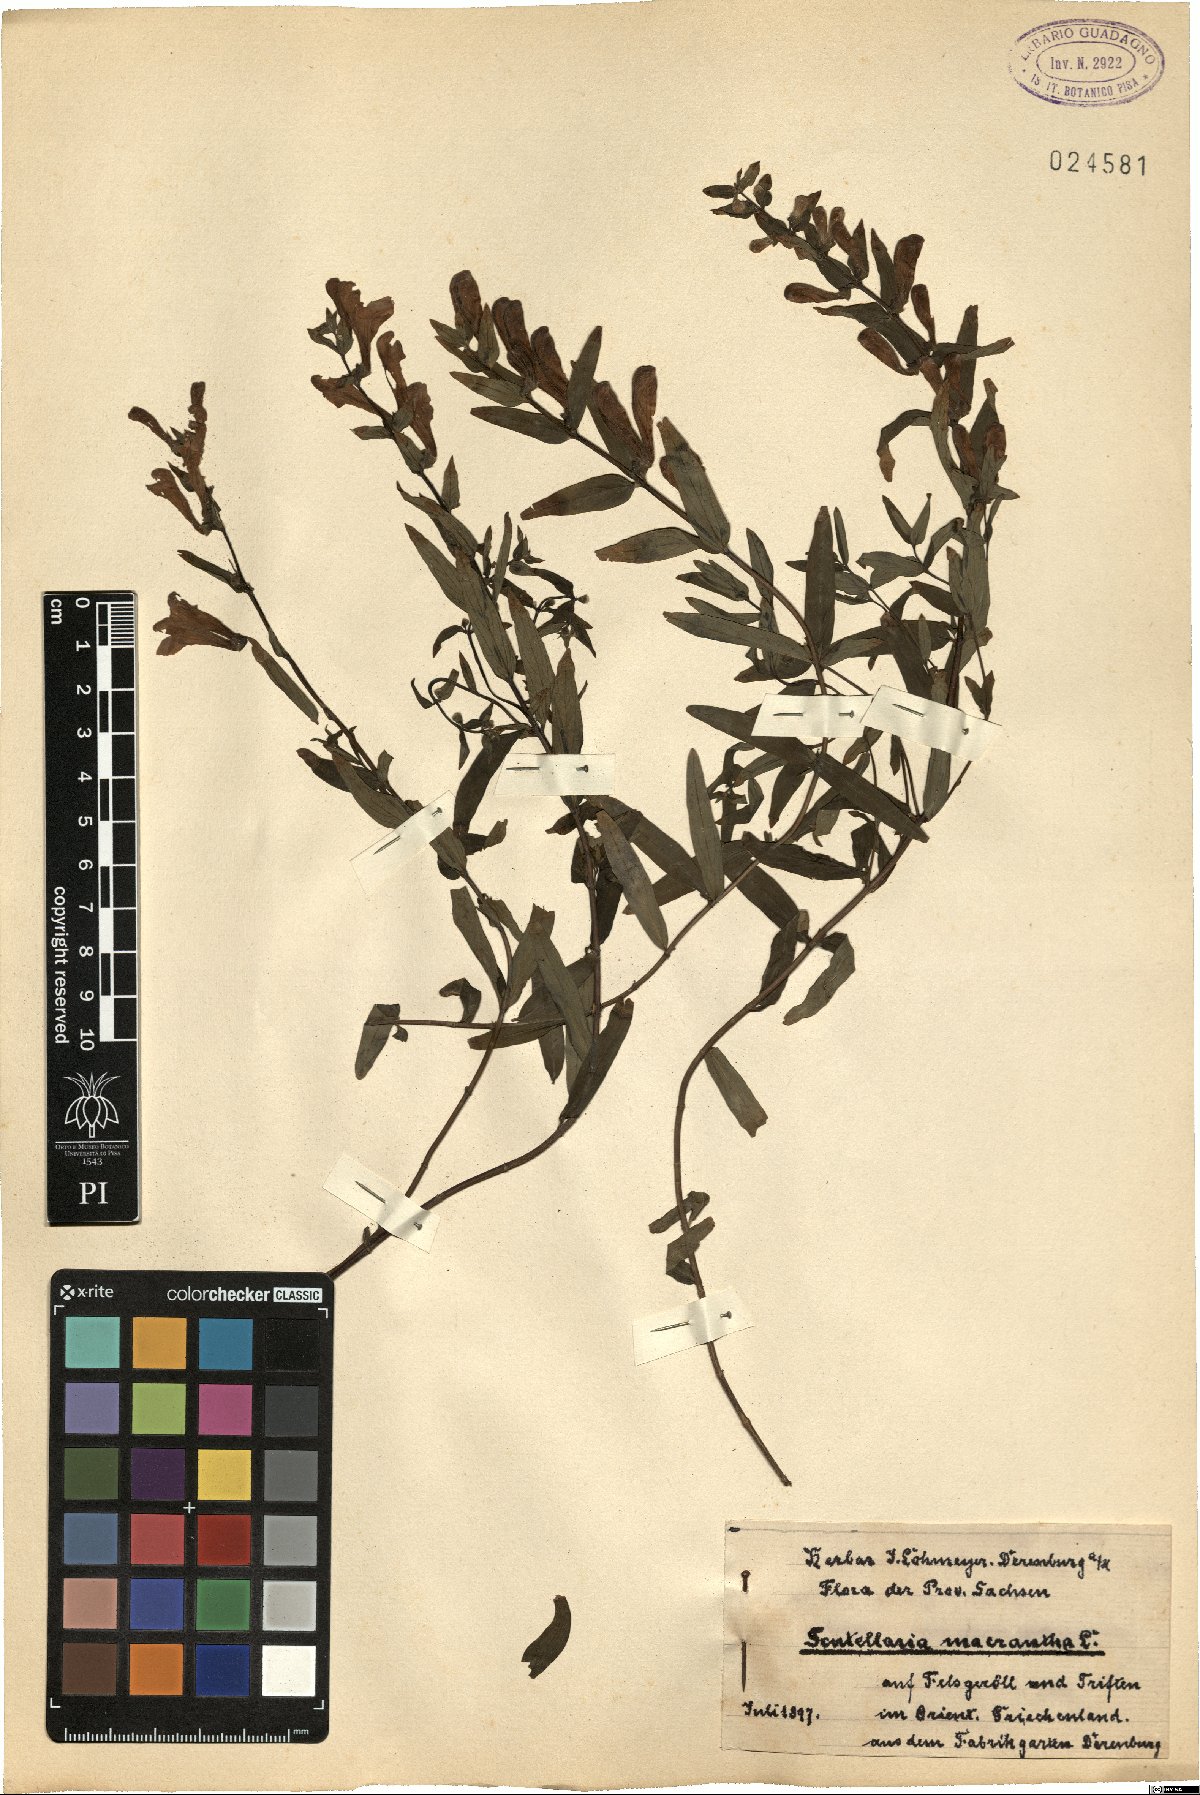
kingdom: Plantae
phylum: Tracheophyta
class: Magnoliopsida
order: Lamiales
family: Lamiaceae
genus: Scutellaria
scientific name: Scutellaria baicalensis
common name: Baikal skullcap
